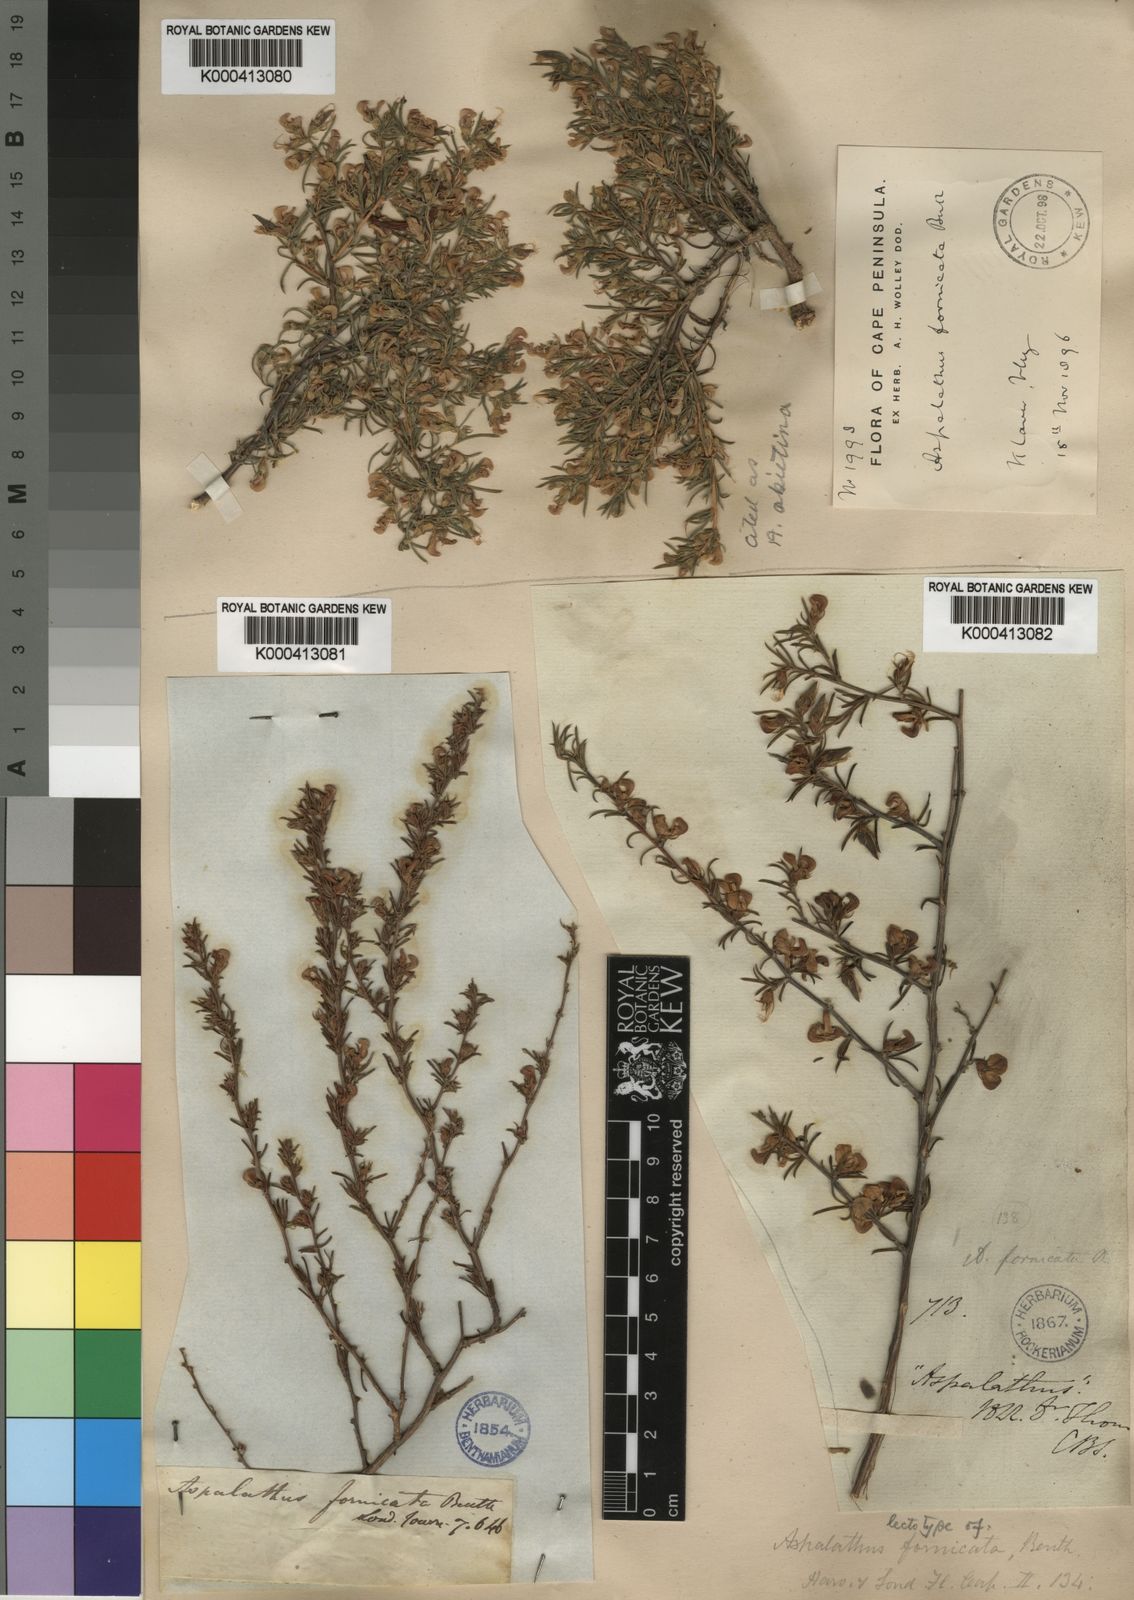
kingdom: Plantae
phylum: Tracheophyta
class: Magnoliopsida
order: Fabales
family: Fabaceae
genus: Aspalathus
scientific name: Aspalathus abietina
